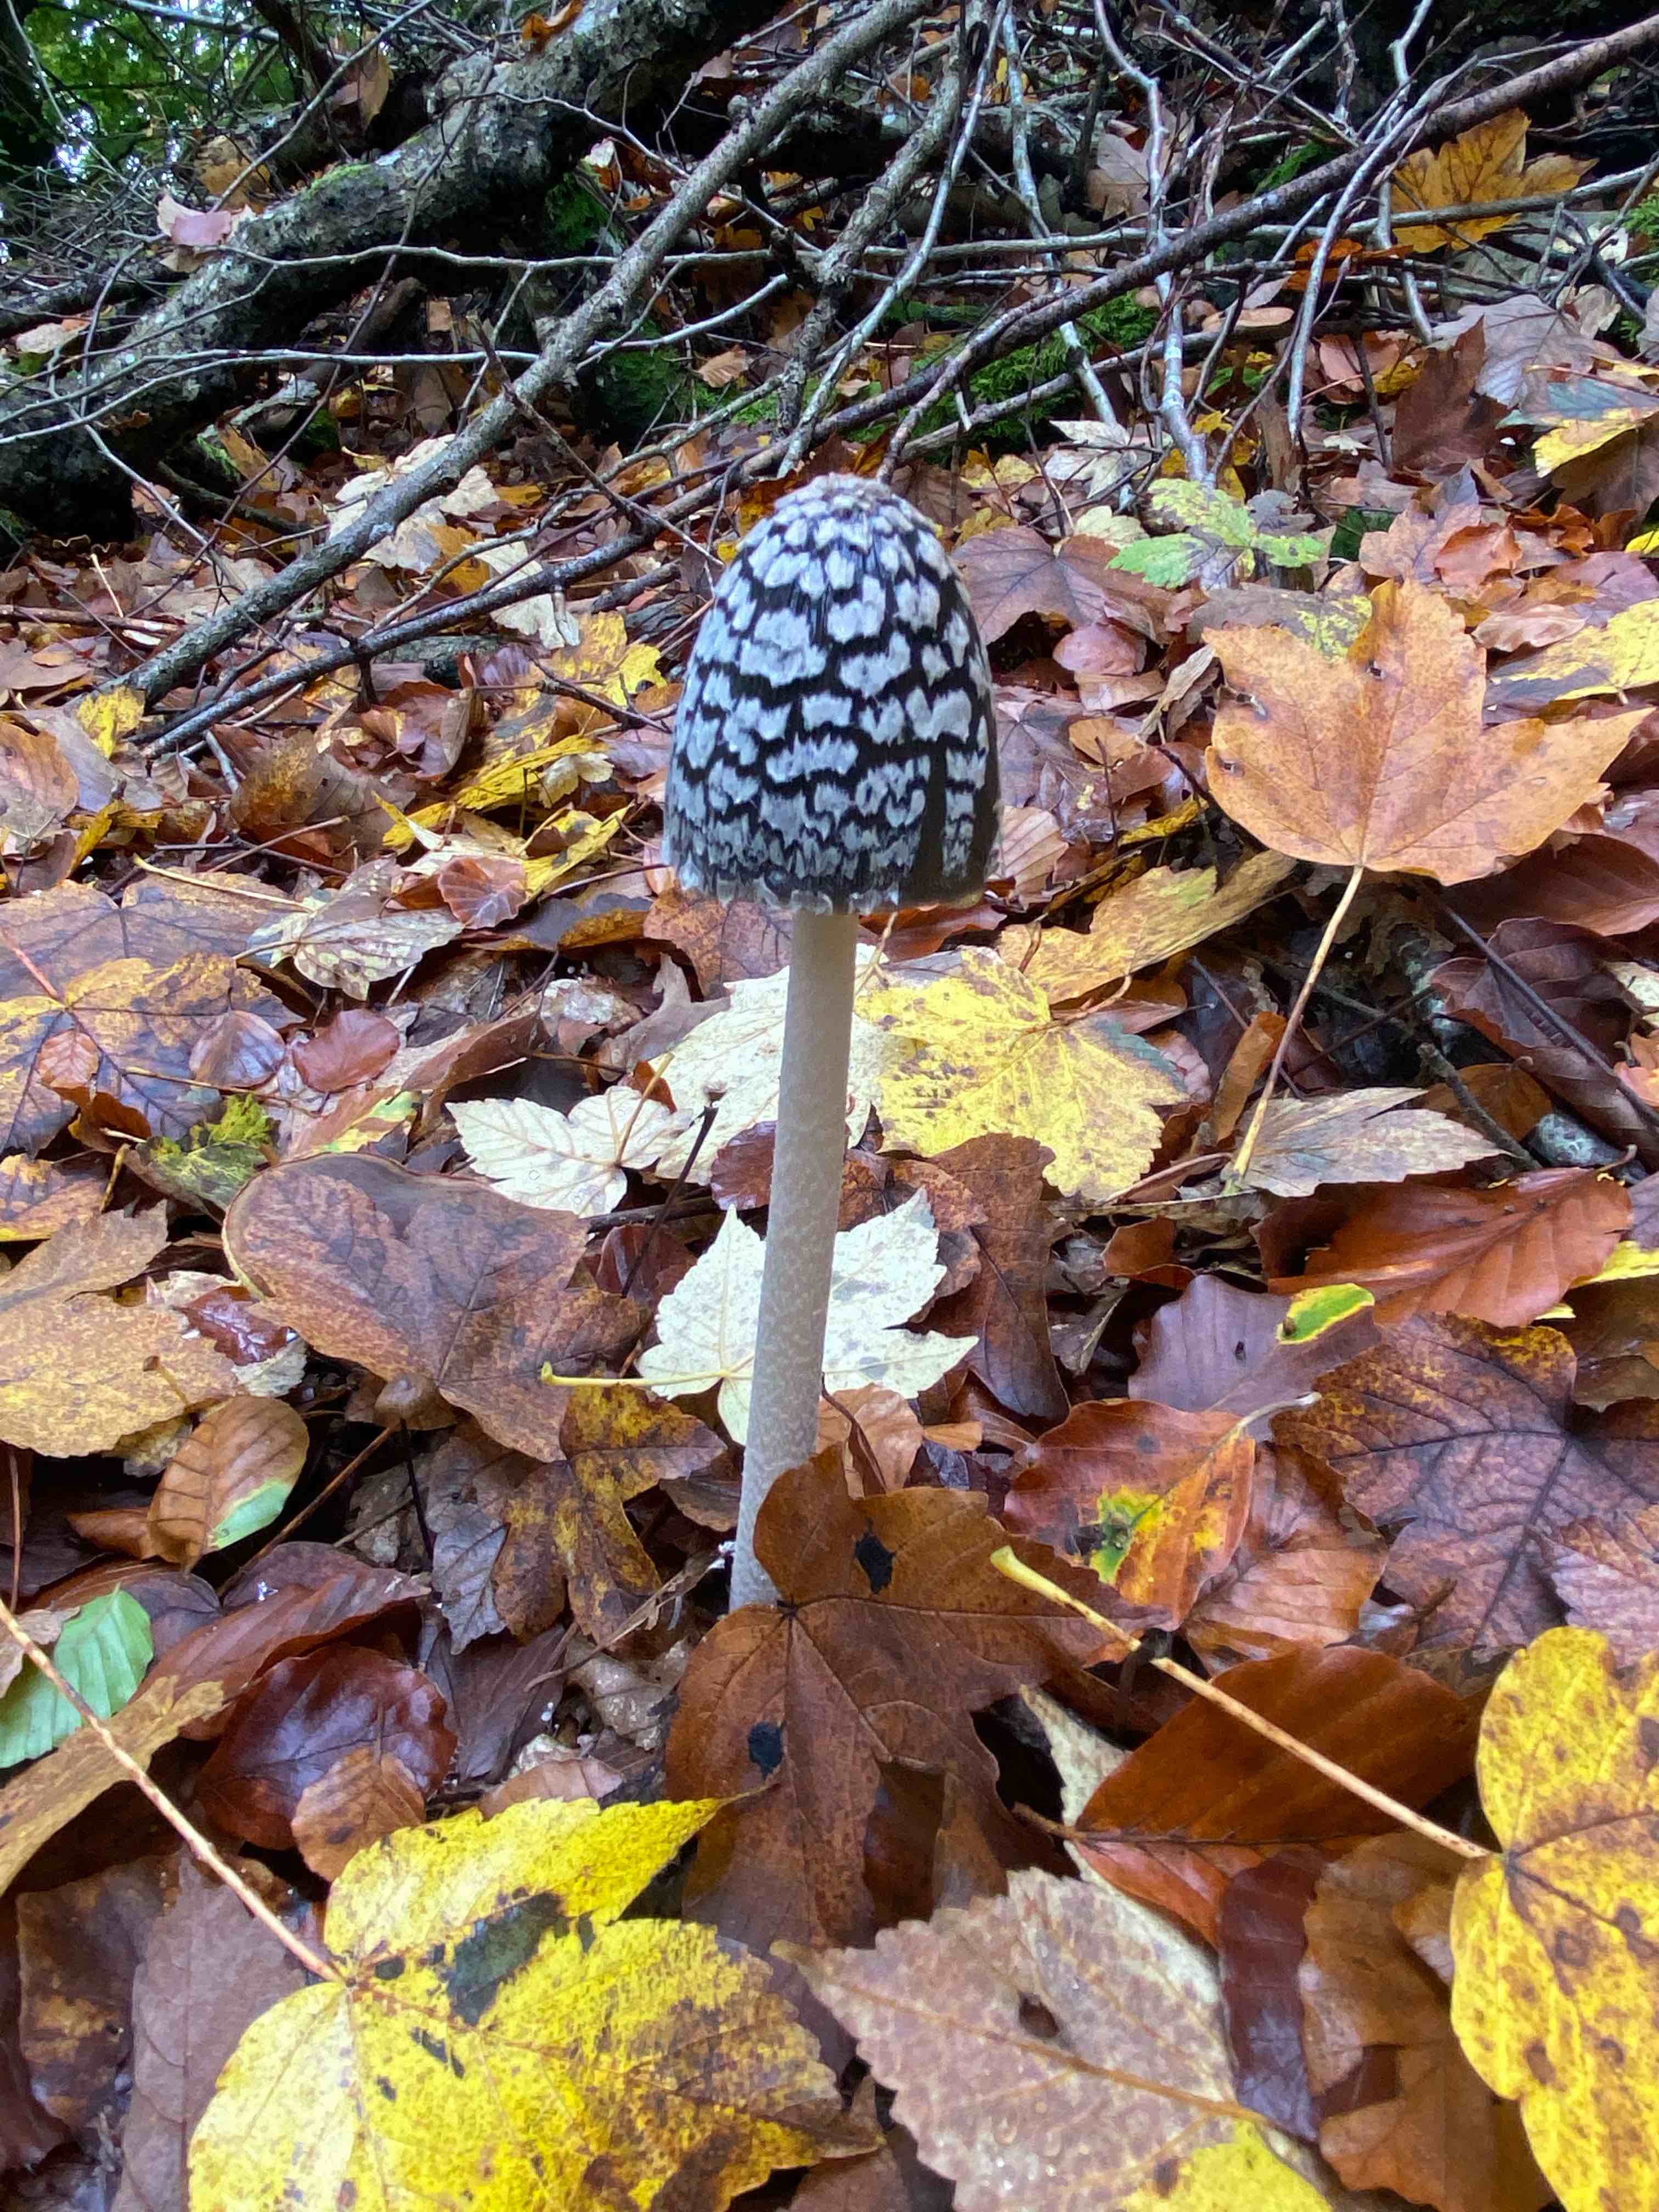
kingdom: Fungi
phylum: Basidiomycota
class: Agaricomycetes
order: Agaricales
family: Psathyrellaceae
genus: Coprinopsis
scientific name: Coprinopsis picacea
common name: skade-blækhat
